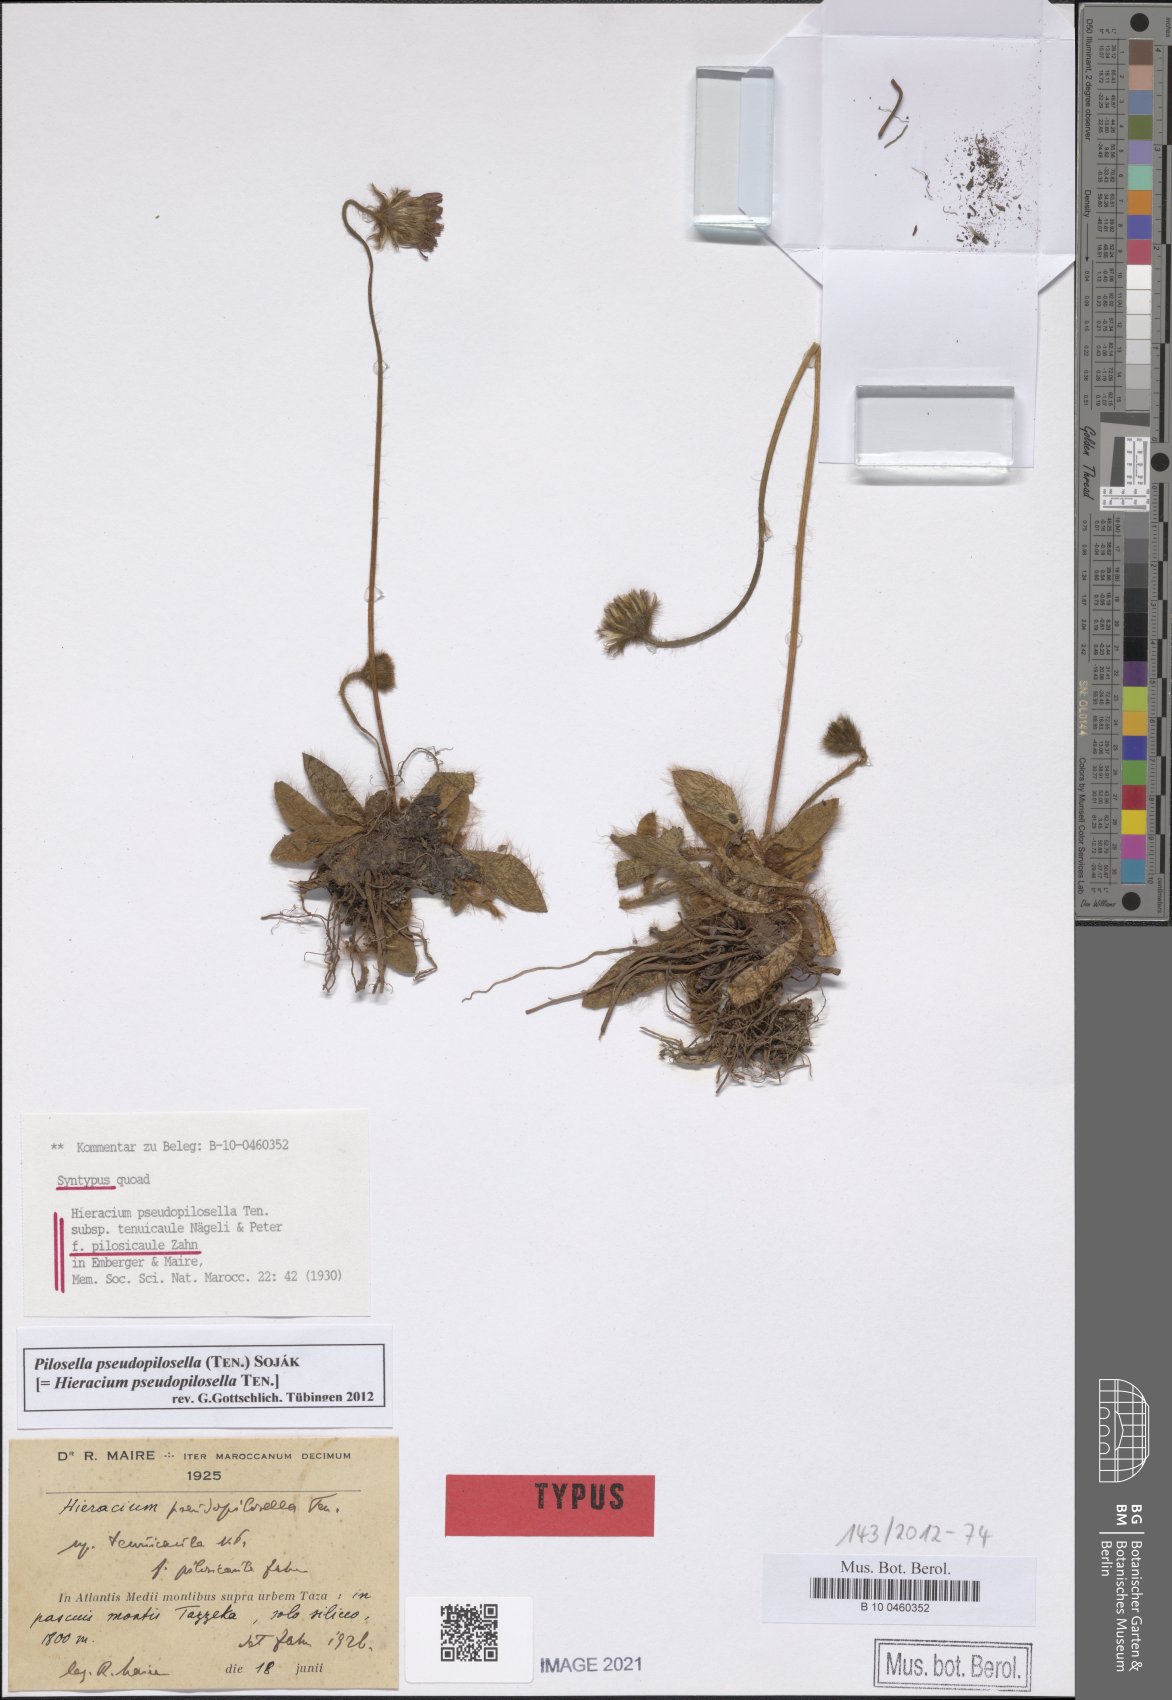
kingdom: Plantae
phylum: Tracheophyta
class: Magnoliopsida
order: Asterales
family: Asteraceae
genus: Pilosella
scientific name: Pilosella pseudopilosella
